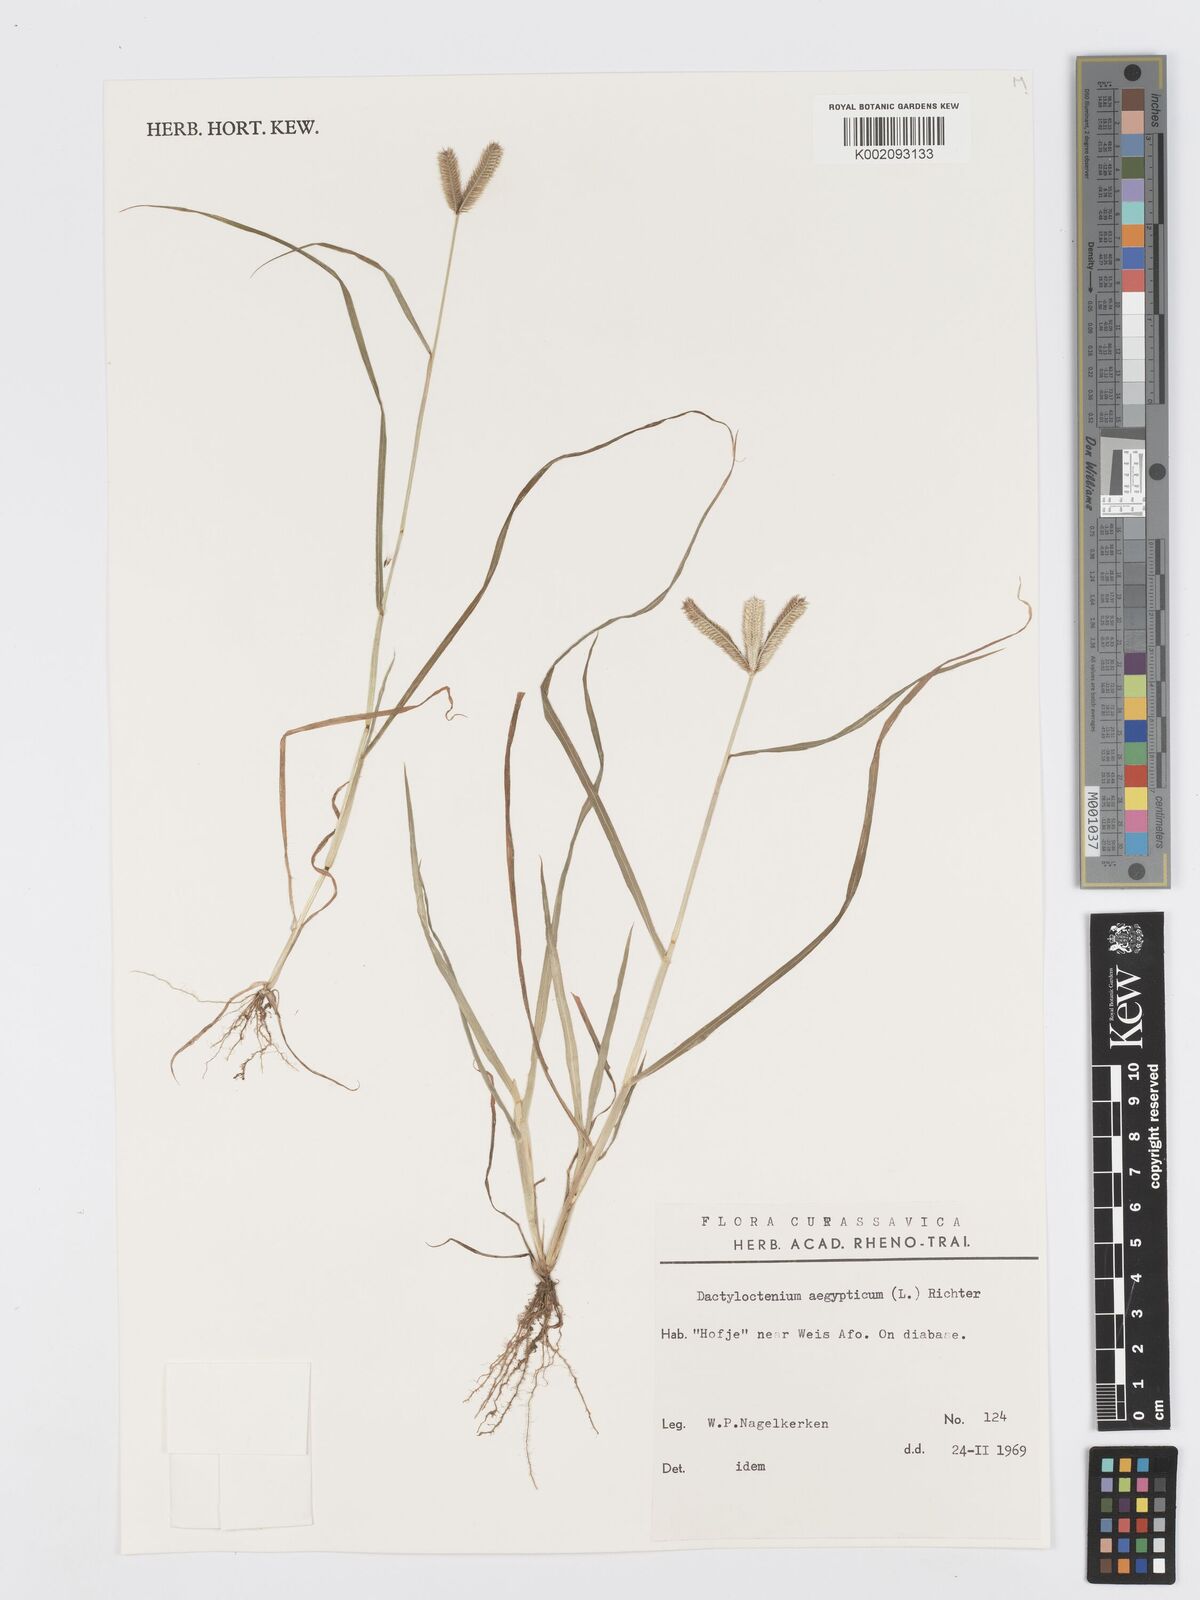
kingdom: Plantae
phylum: Tracheophyta
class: Liliopsida
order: Poales
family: Poaceae
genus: Dactyloctenium
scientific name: Dactyloctenium aegyptium
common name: Egyptian grass
